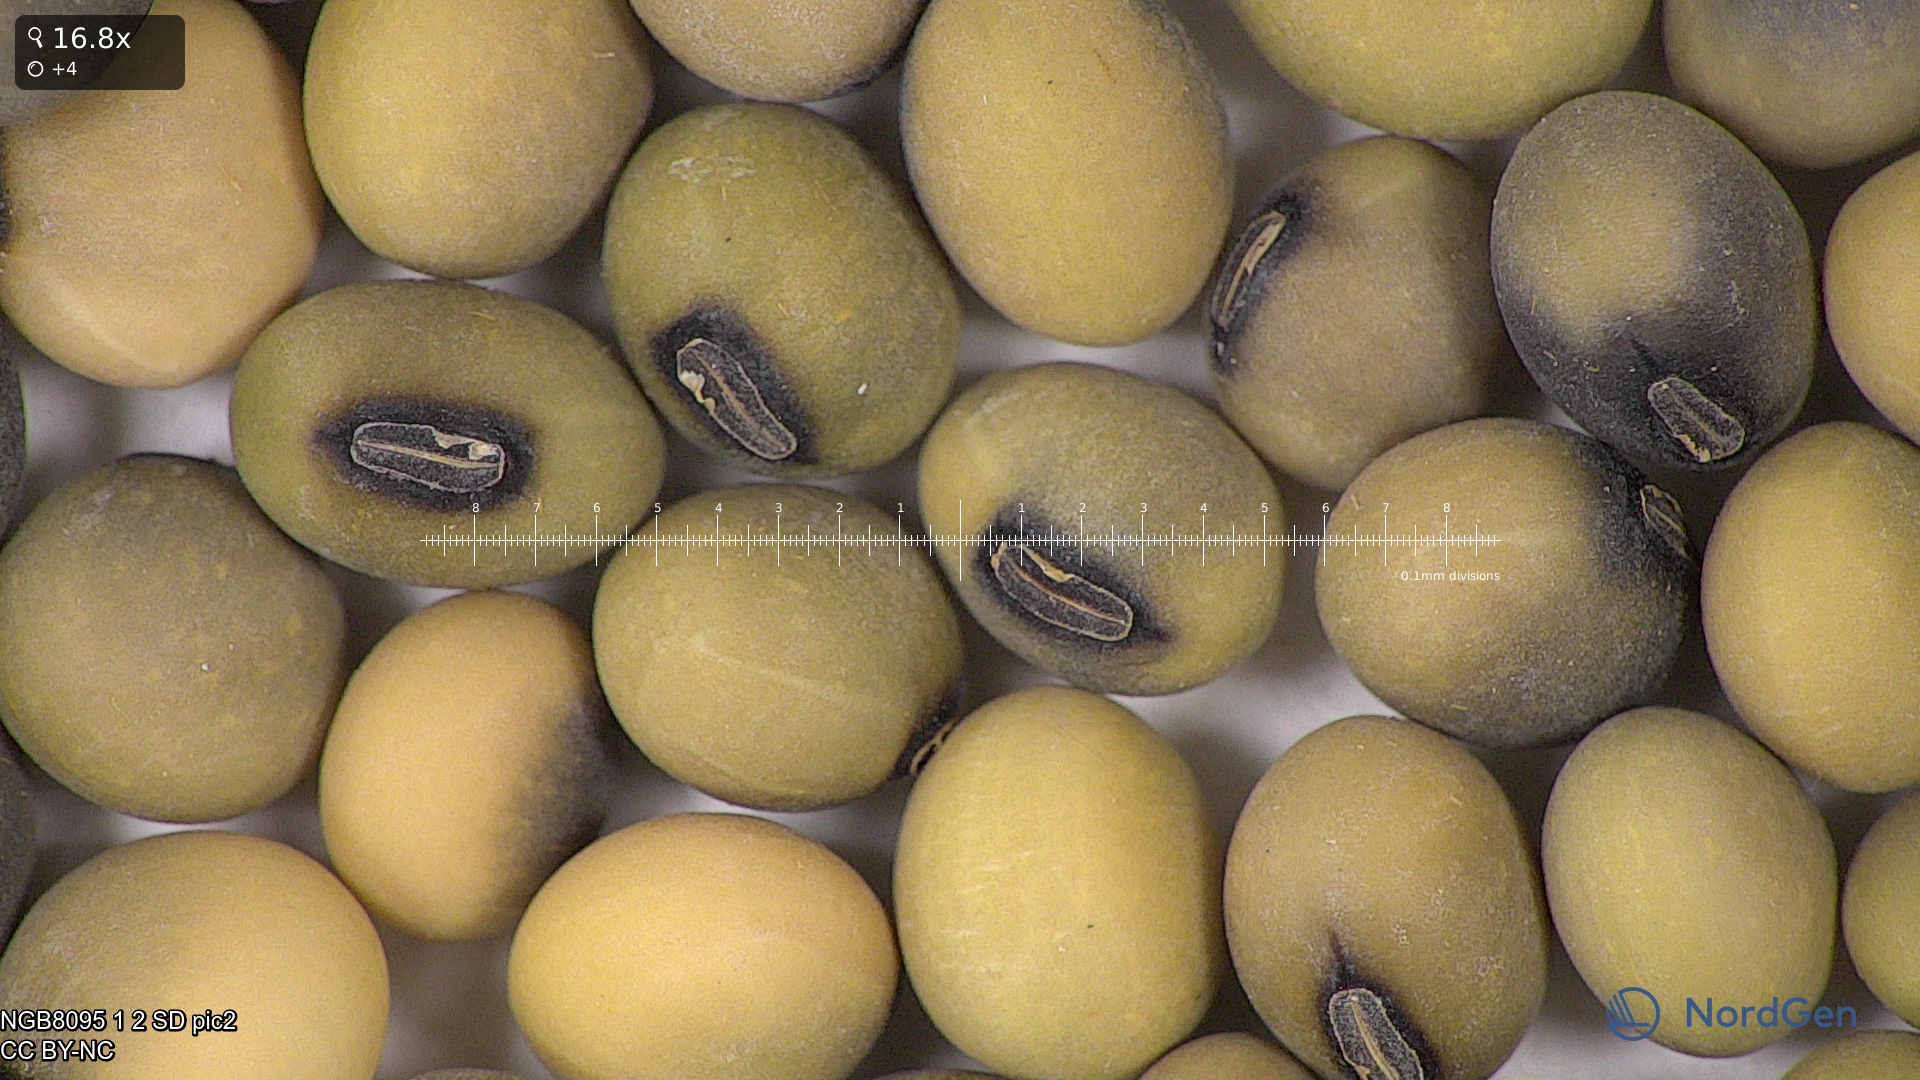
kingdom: Plantae
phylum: Tracheophyta
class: Magnoliopsida
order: Fabales
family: Fabaceae
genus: Glycine
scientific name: Glycine max
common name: Soya-bean
